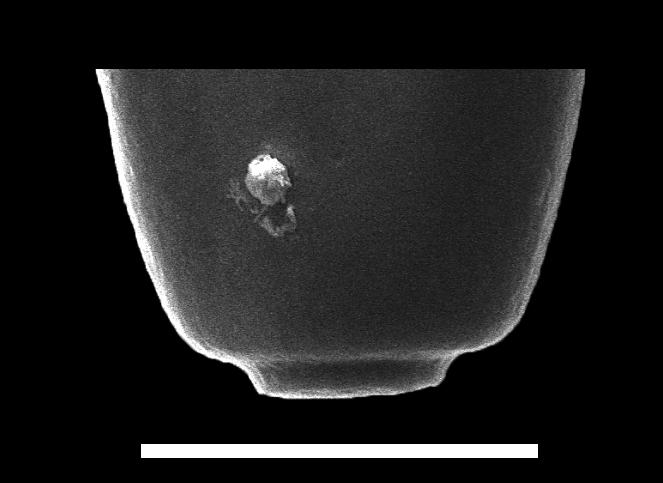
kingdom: Animalia
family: Conochitinidae
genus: Conochitina
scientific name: Conochitina
